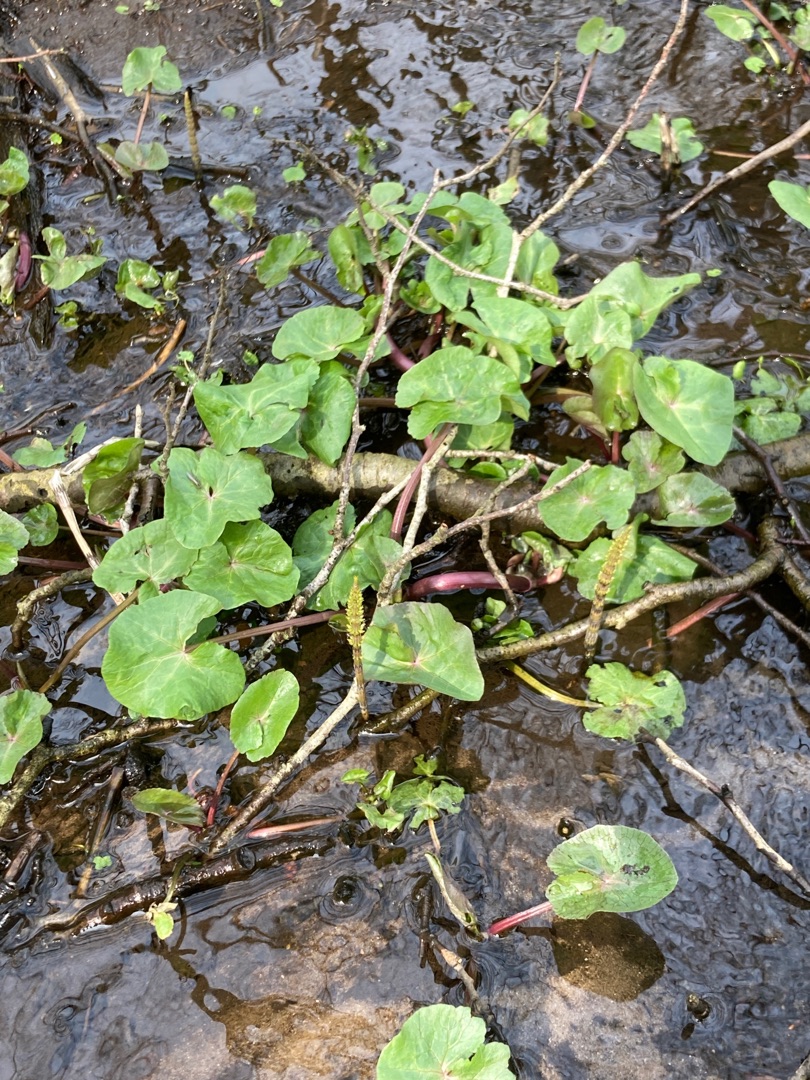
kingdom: Plantae
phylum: Tracheophyta
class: Magnoliopsida
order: Ranunculales
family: Ranunculaceae
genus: Caltha
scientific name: Caltha palustris
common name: Eng-kabbeleje
